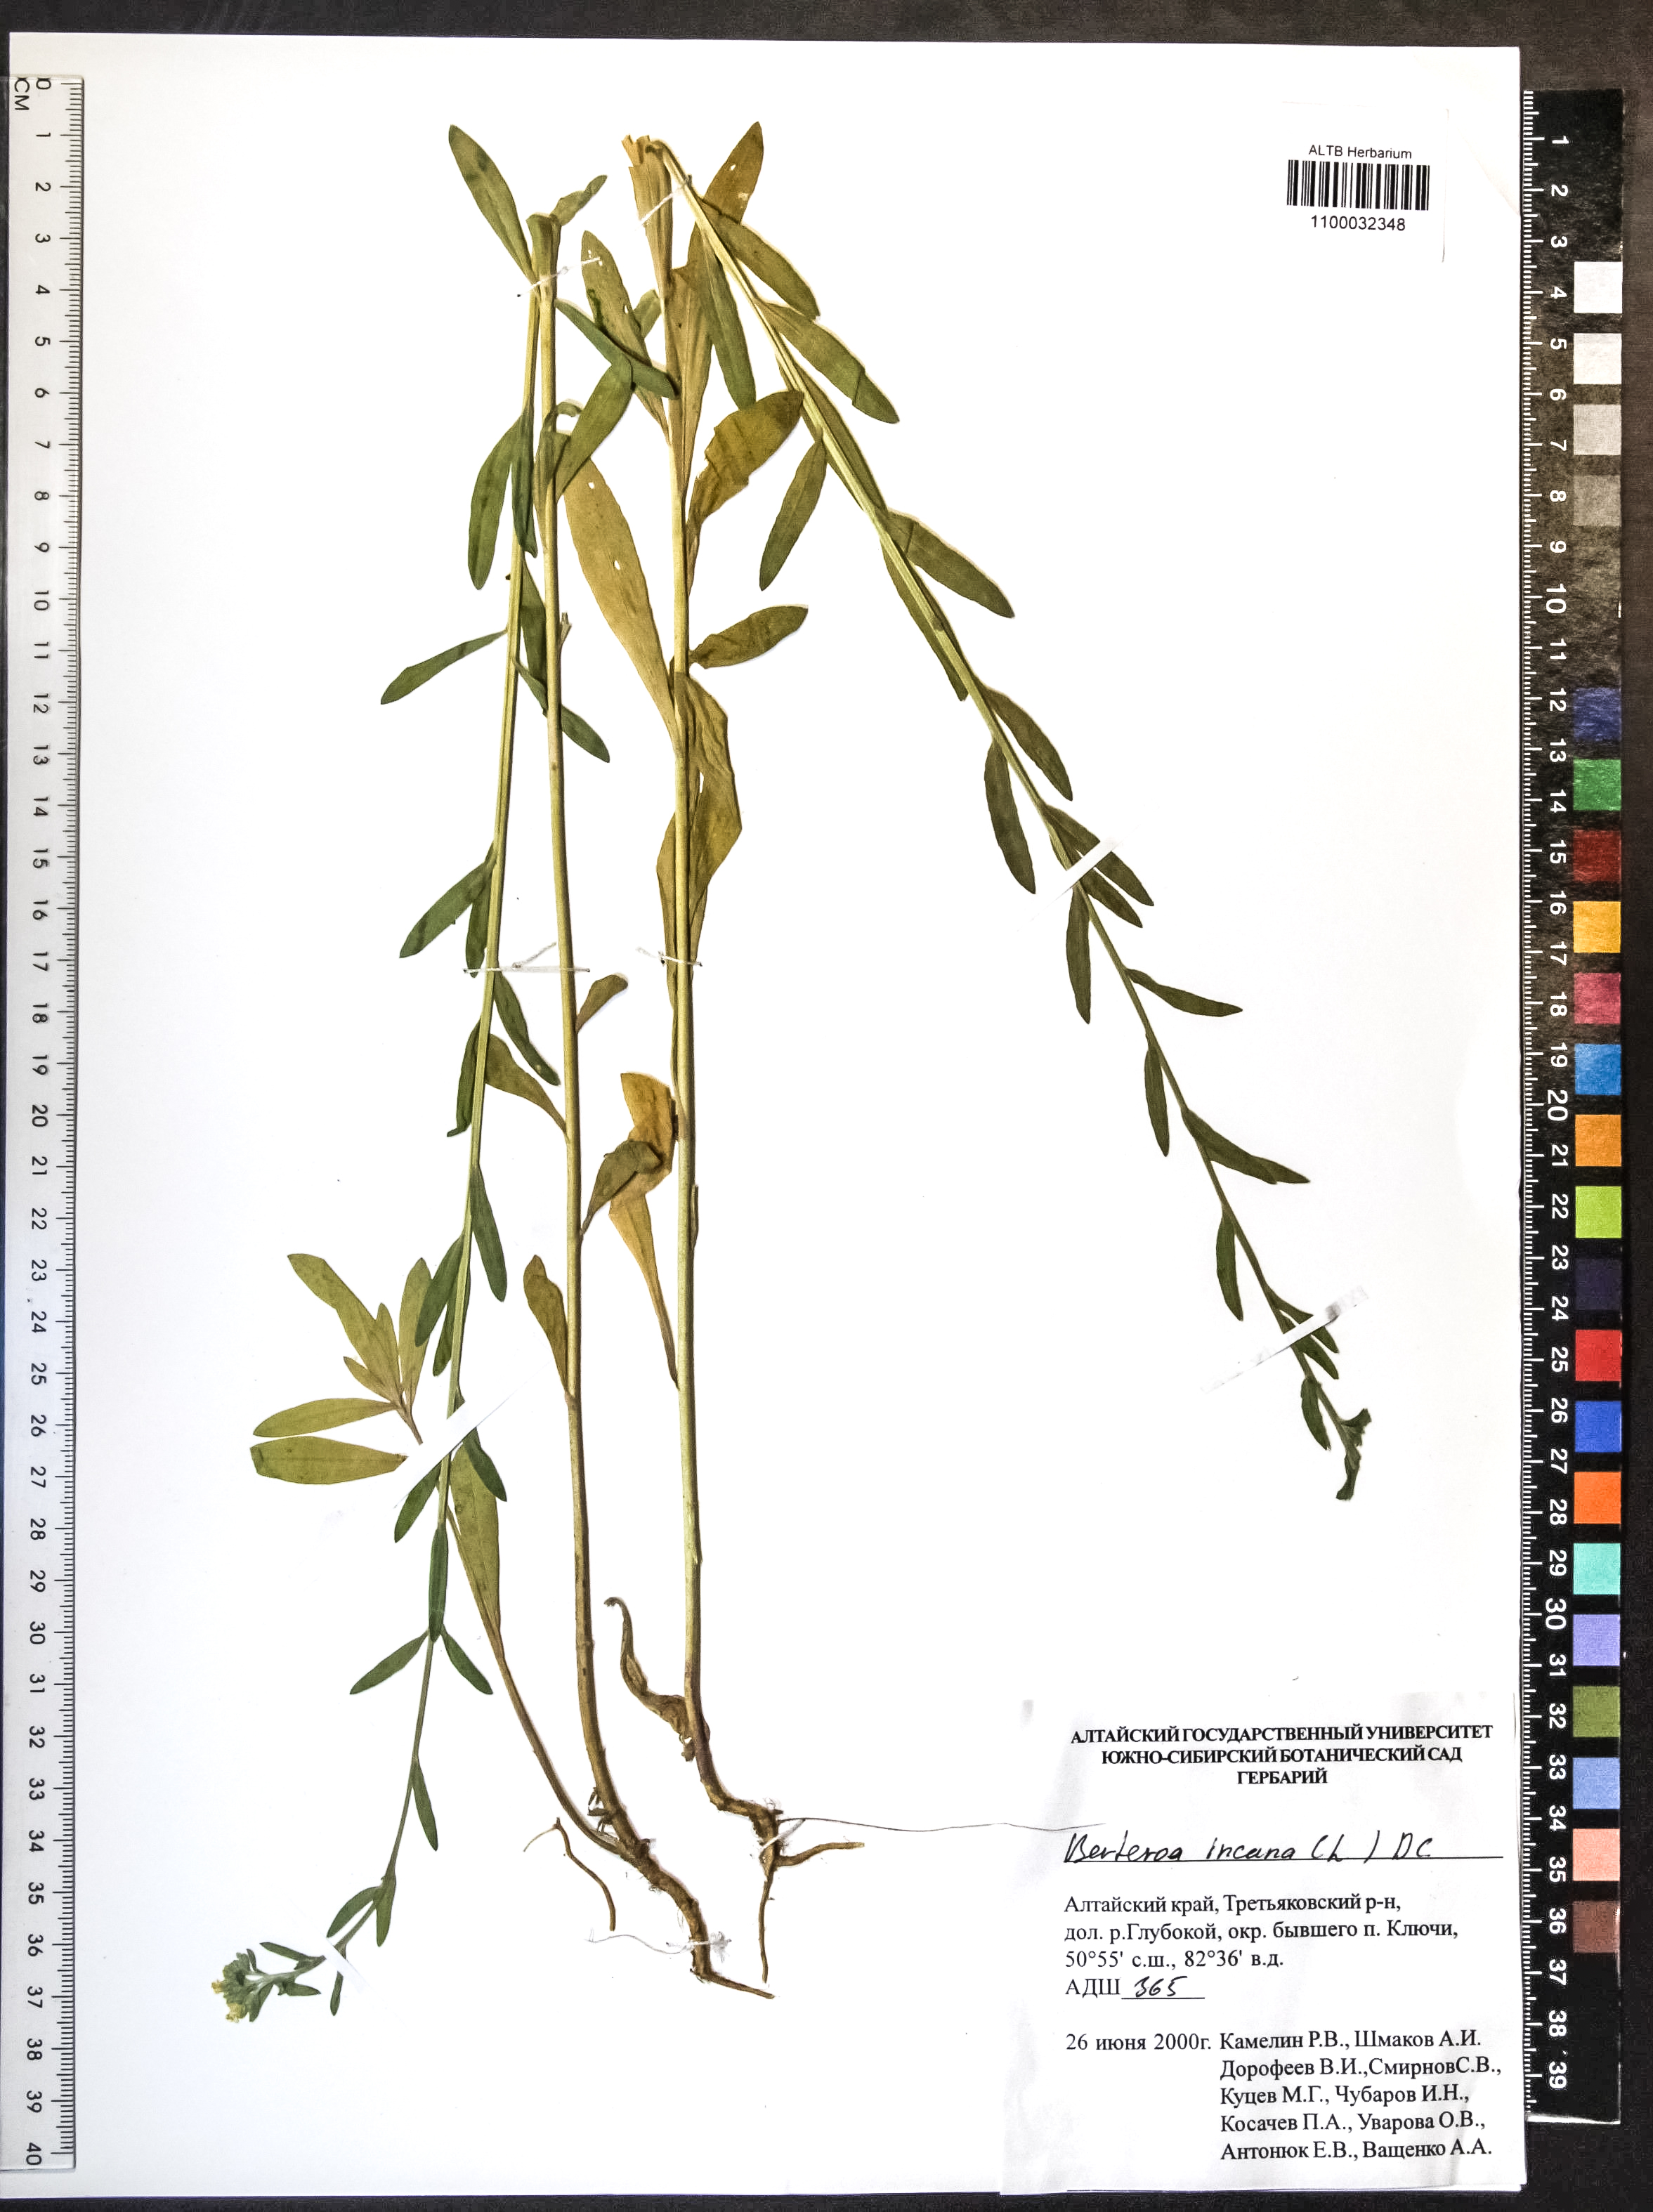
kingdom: Plantae
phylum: Tracheophyta
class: Magnoliopsida
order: Brassicales
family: Brassicaceae
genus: Berteroa
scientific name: Berteroa incana
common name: Hoary alison
